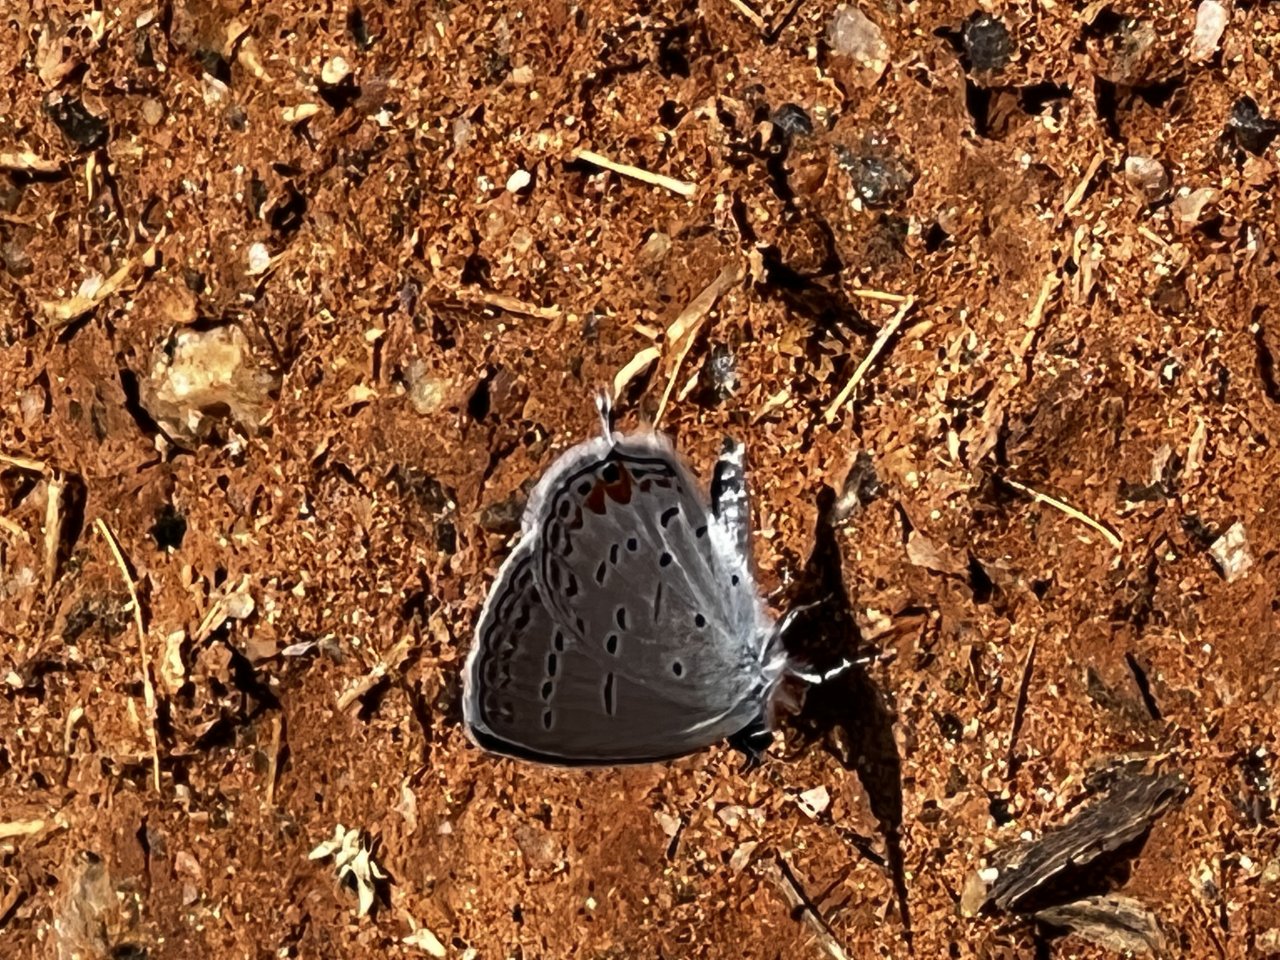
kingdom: Animalia
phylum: Arthropoda
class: Insecta
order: Lepidoptera
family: Lycaenidae
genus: Elkalyce
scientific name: Elkalyce comyntas
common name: Eastern Tailed-Blue
